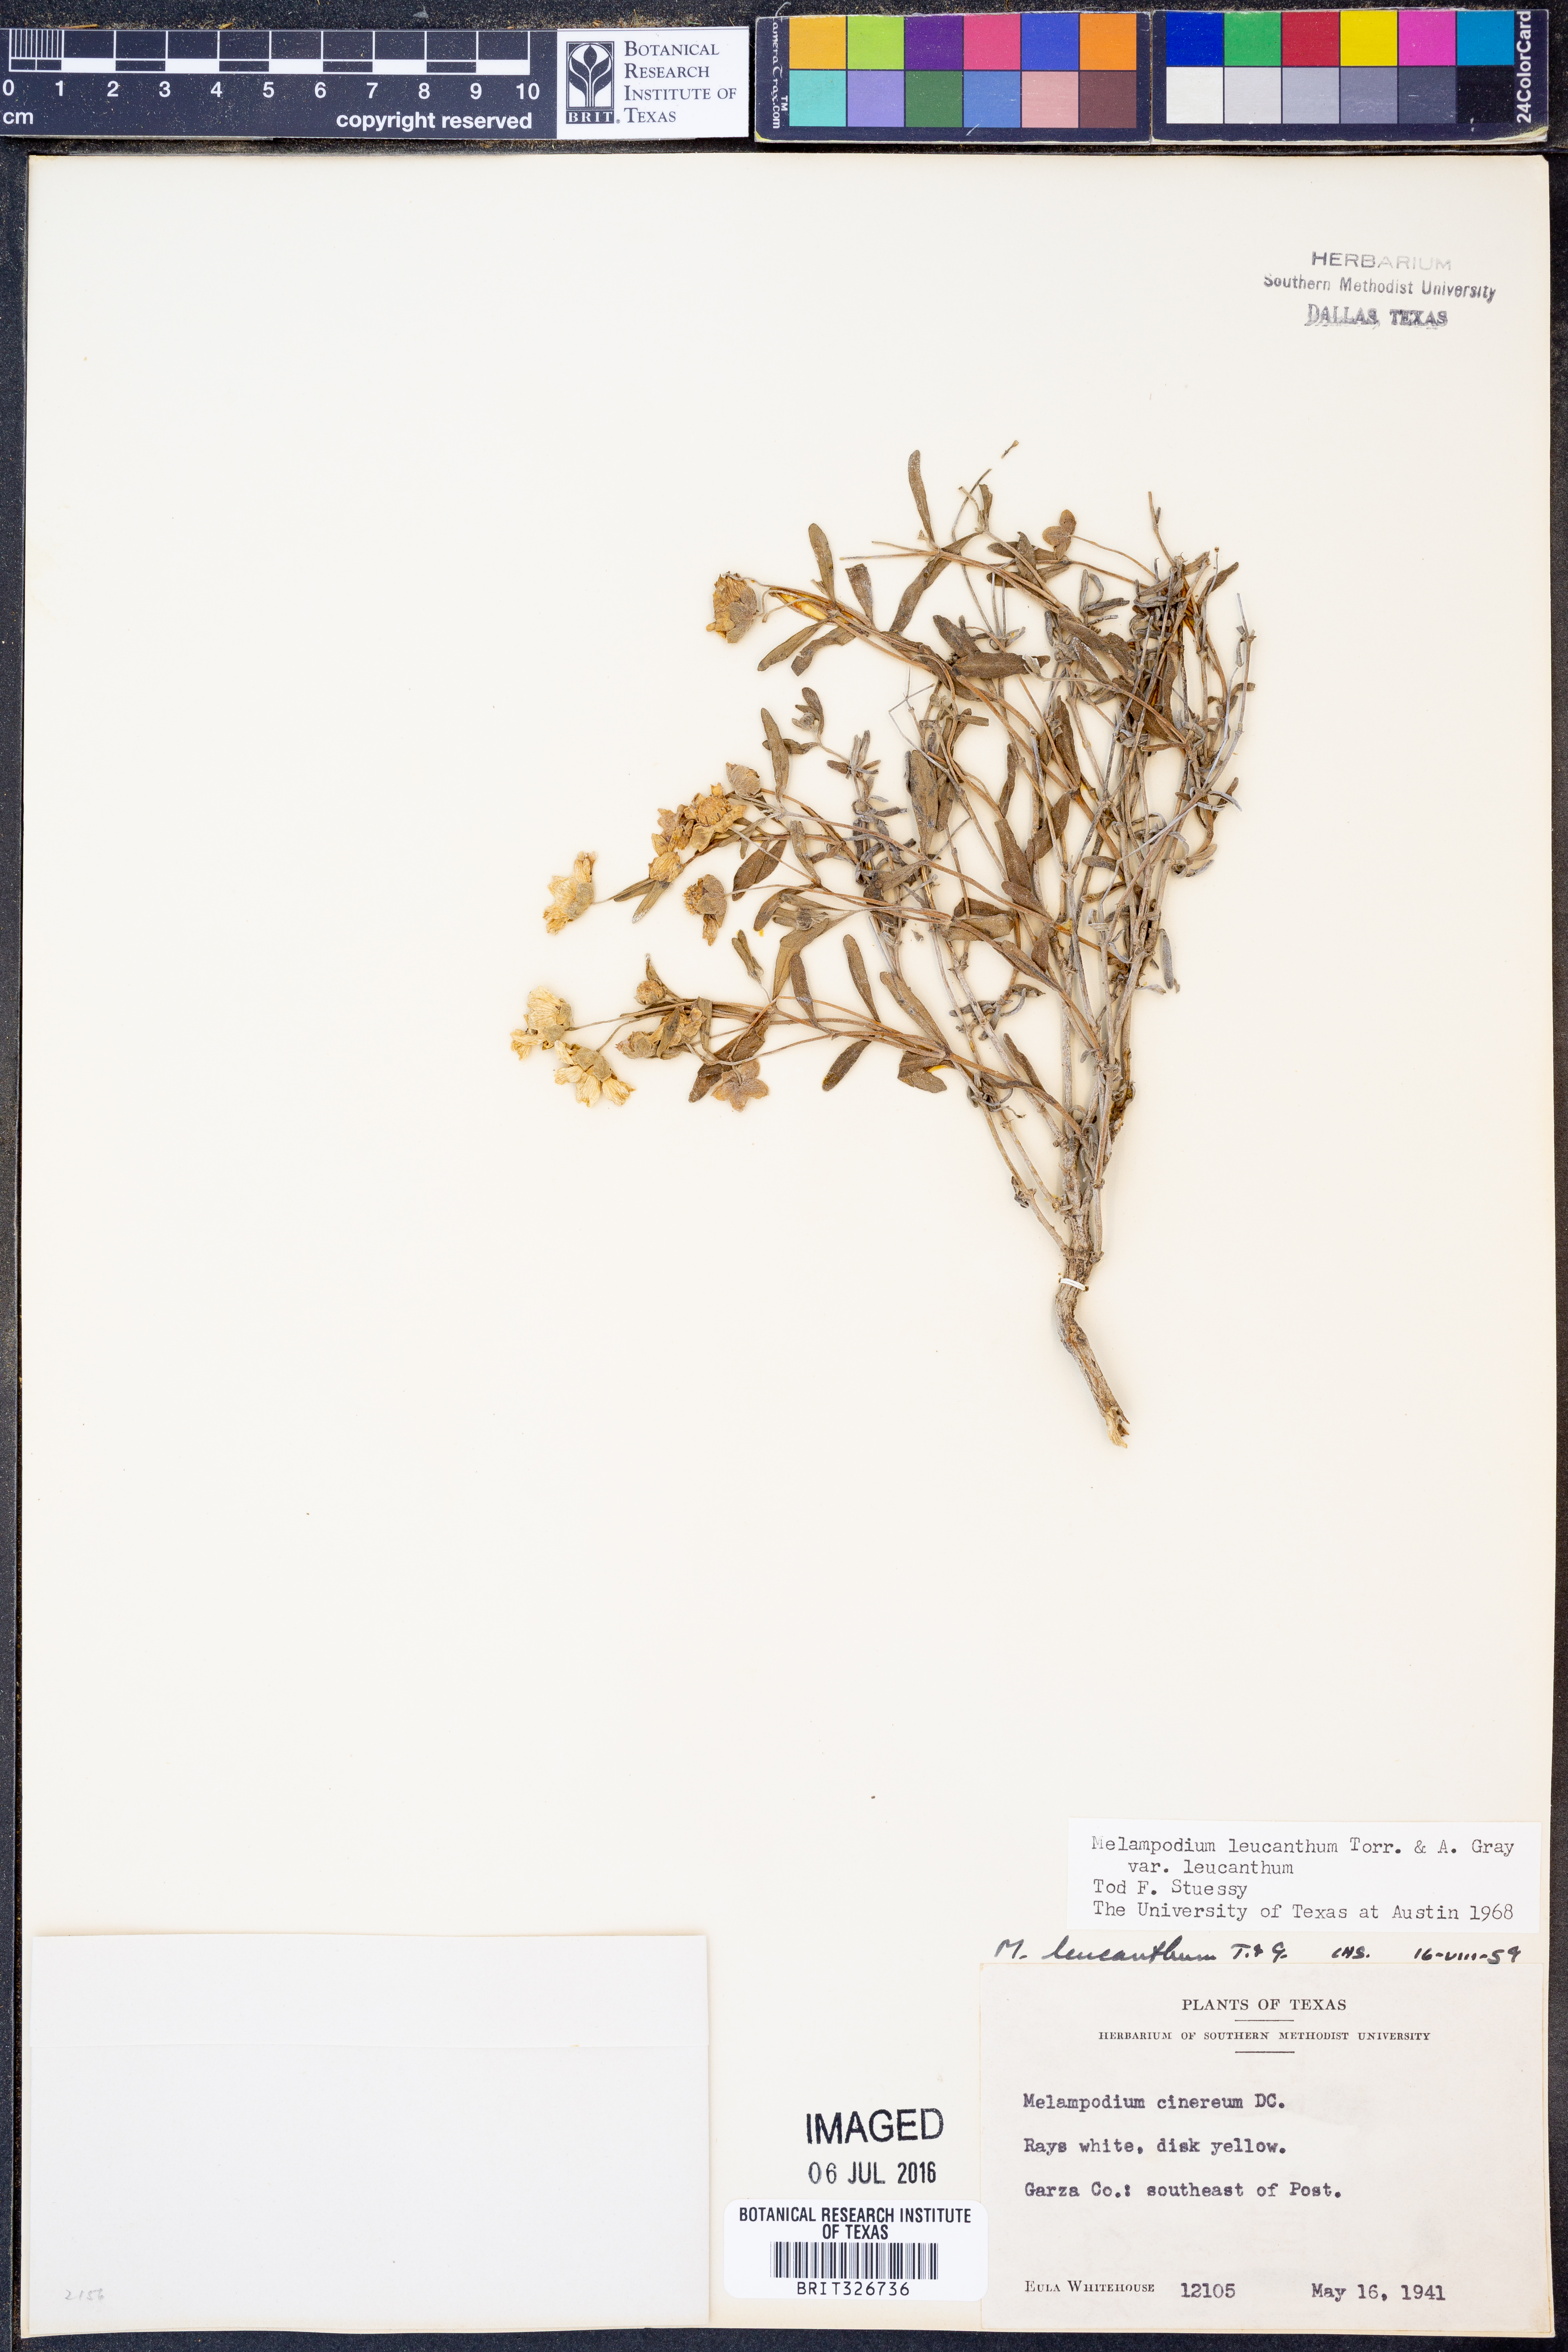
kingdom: Plantae
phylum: Tracheophyta
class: Magnoliopsida
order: Asterales
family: Asteraceae
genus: Melampodium
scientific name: Melampodium leucanthum
